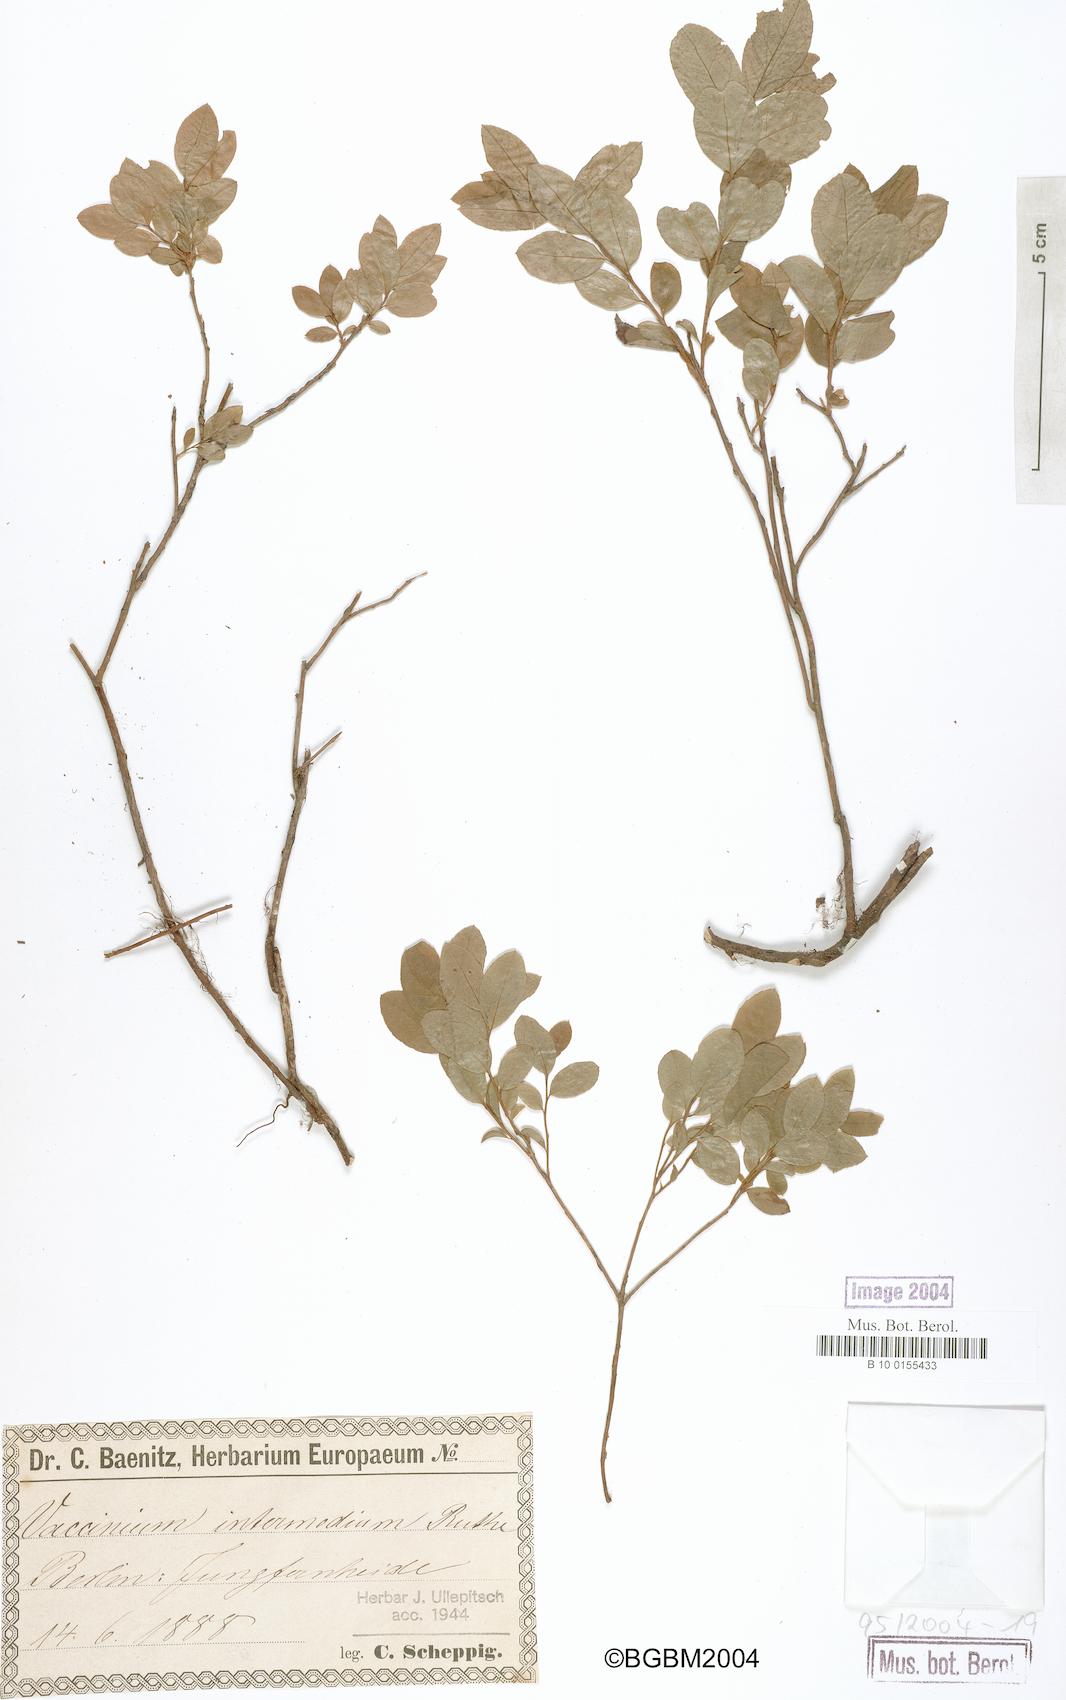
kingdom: Plantae
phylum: Tracheophyta
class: Magnoliopsida
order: Ericales
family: Ericaceae
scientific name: Ericaceae
